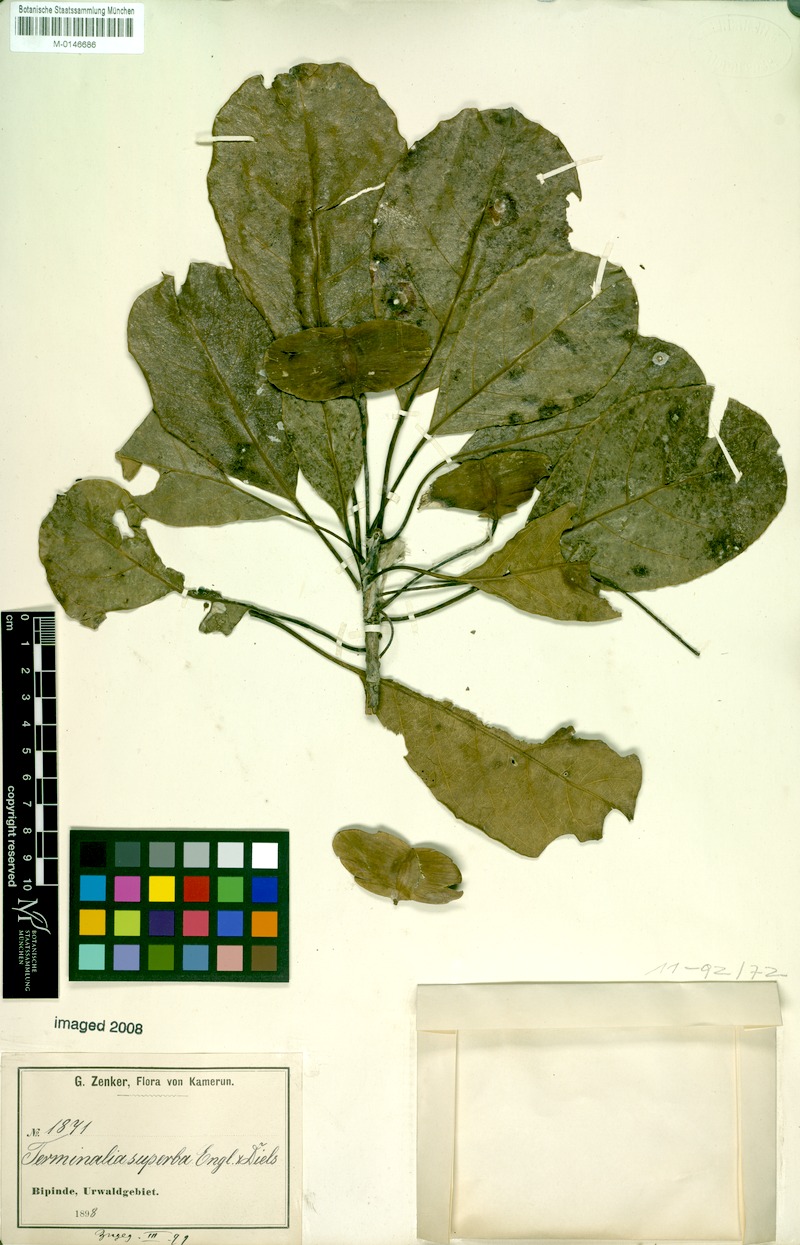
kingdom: Plantae
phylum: Tracheophyta
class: Magnoliopsida
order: Myrtales
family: Combretaceae
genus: Terminalia
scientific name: Terminalia superba
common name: White afara
